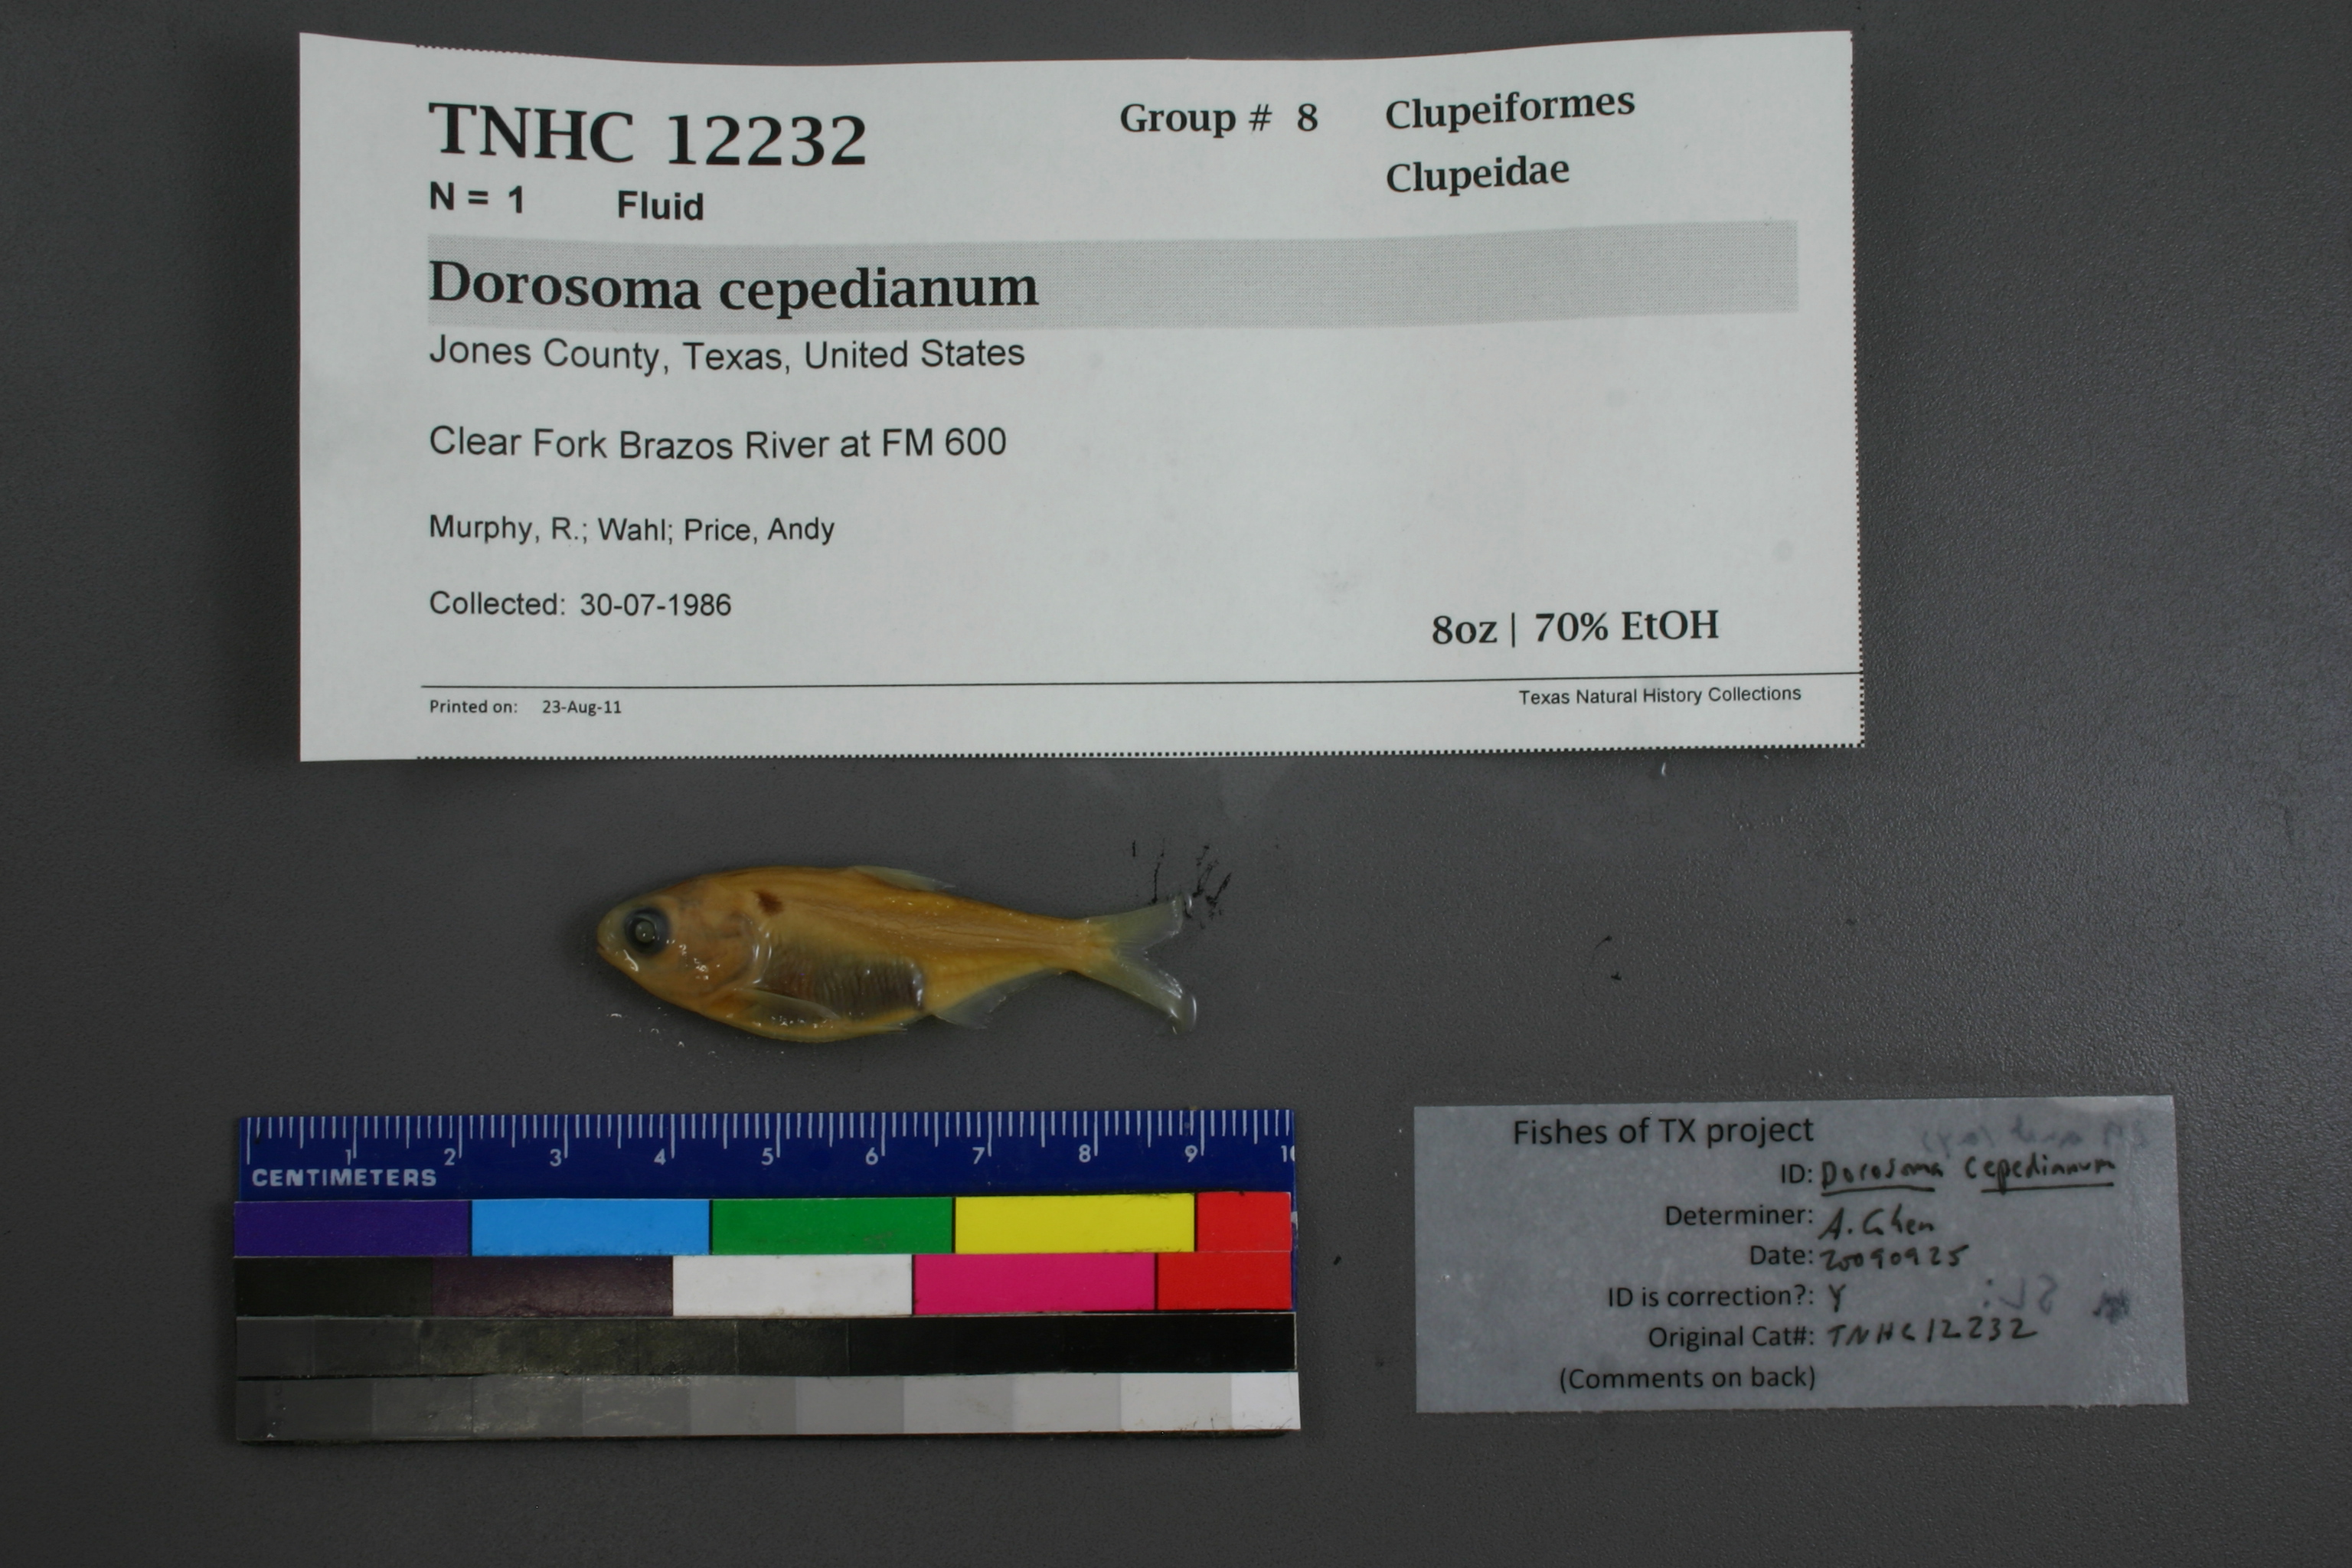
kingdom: Animalia
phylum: Chordata
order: Clupeiformes
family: Clupeidae
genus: Dorosoma
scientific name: Dorosoma cepedianum
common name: Gizzard shad
